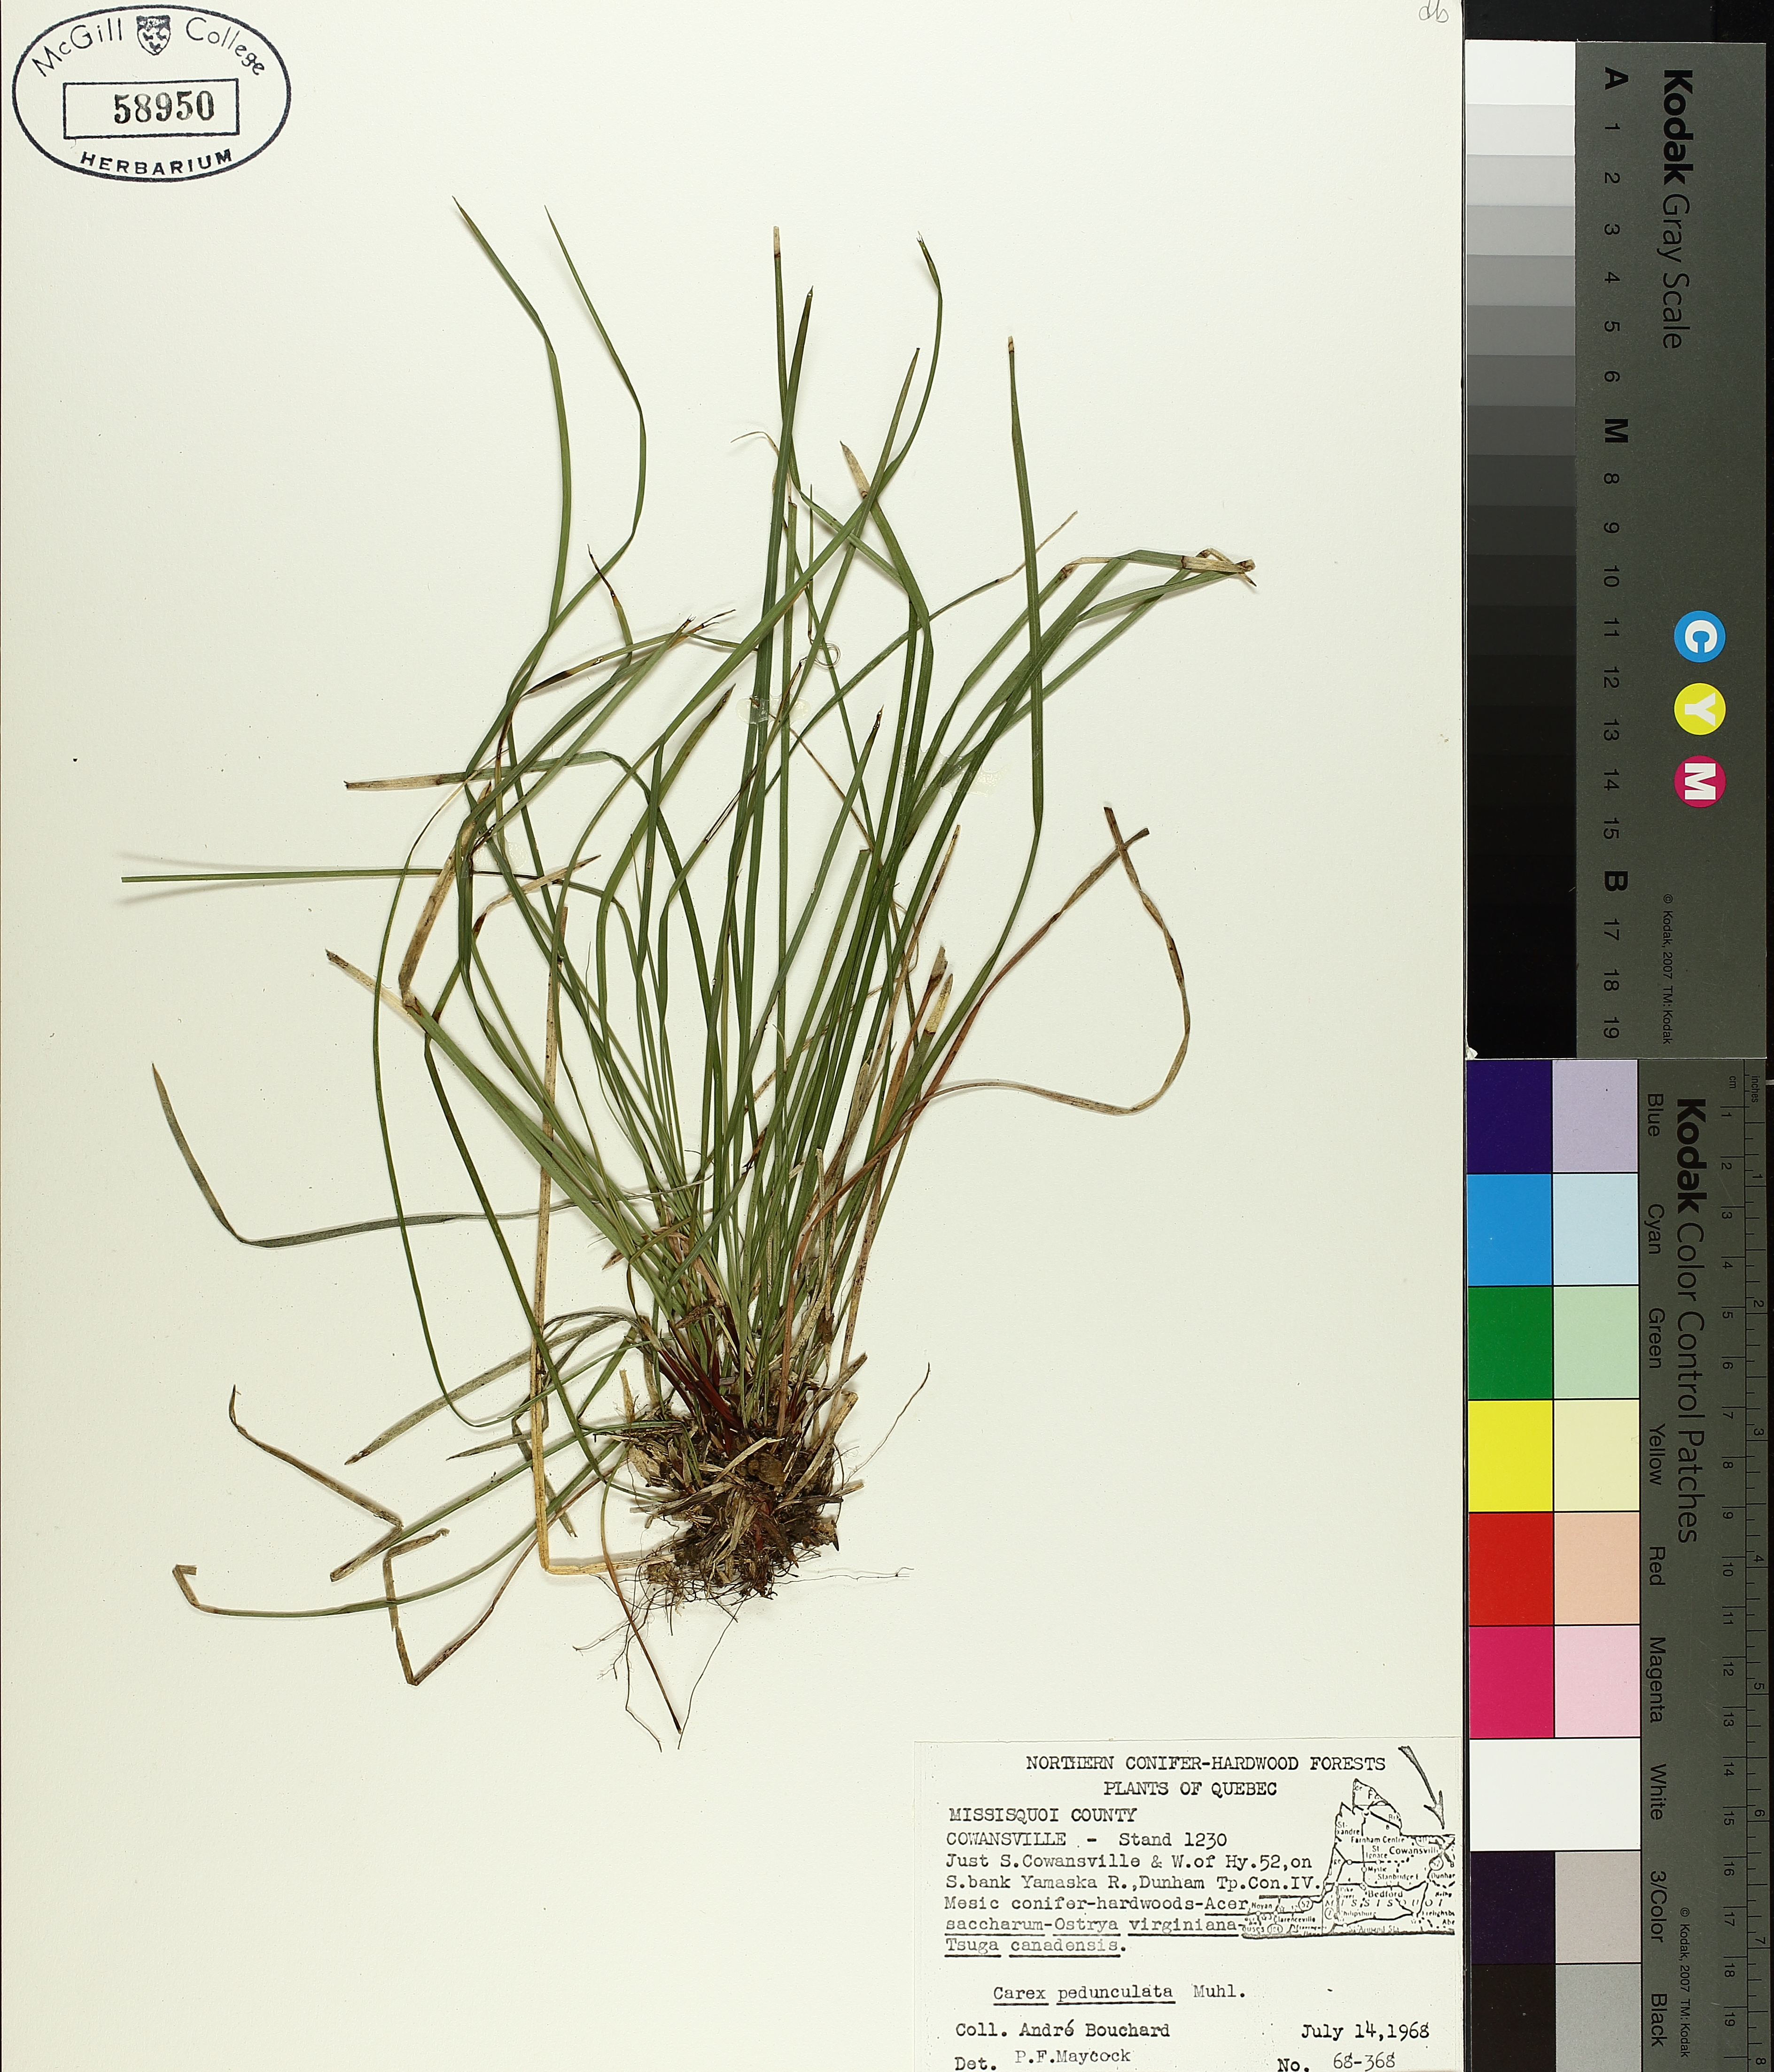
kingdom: Plantae
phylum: Tracheophyta
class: Liliopsida
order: Poales
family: Cyperaceae
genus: Carex
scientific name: Carex pedunculata
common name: Pedunculate sedge
